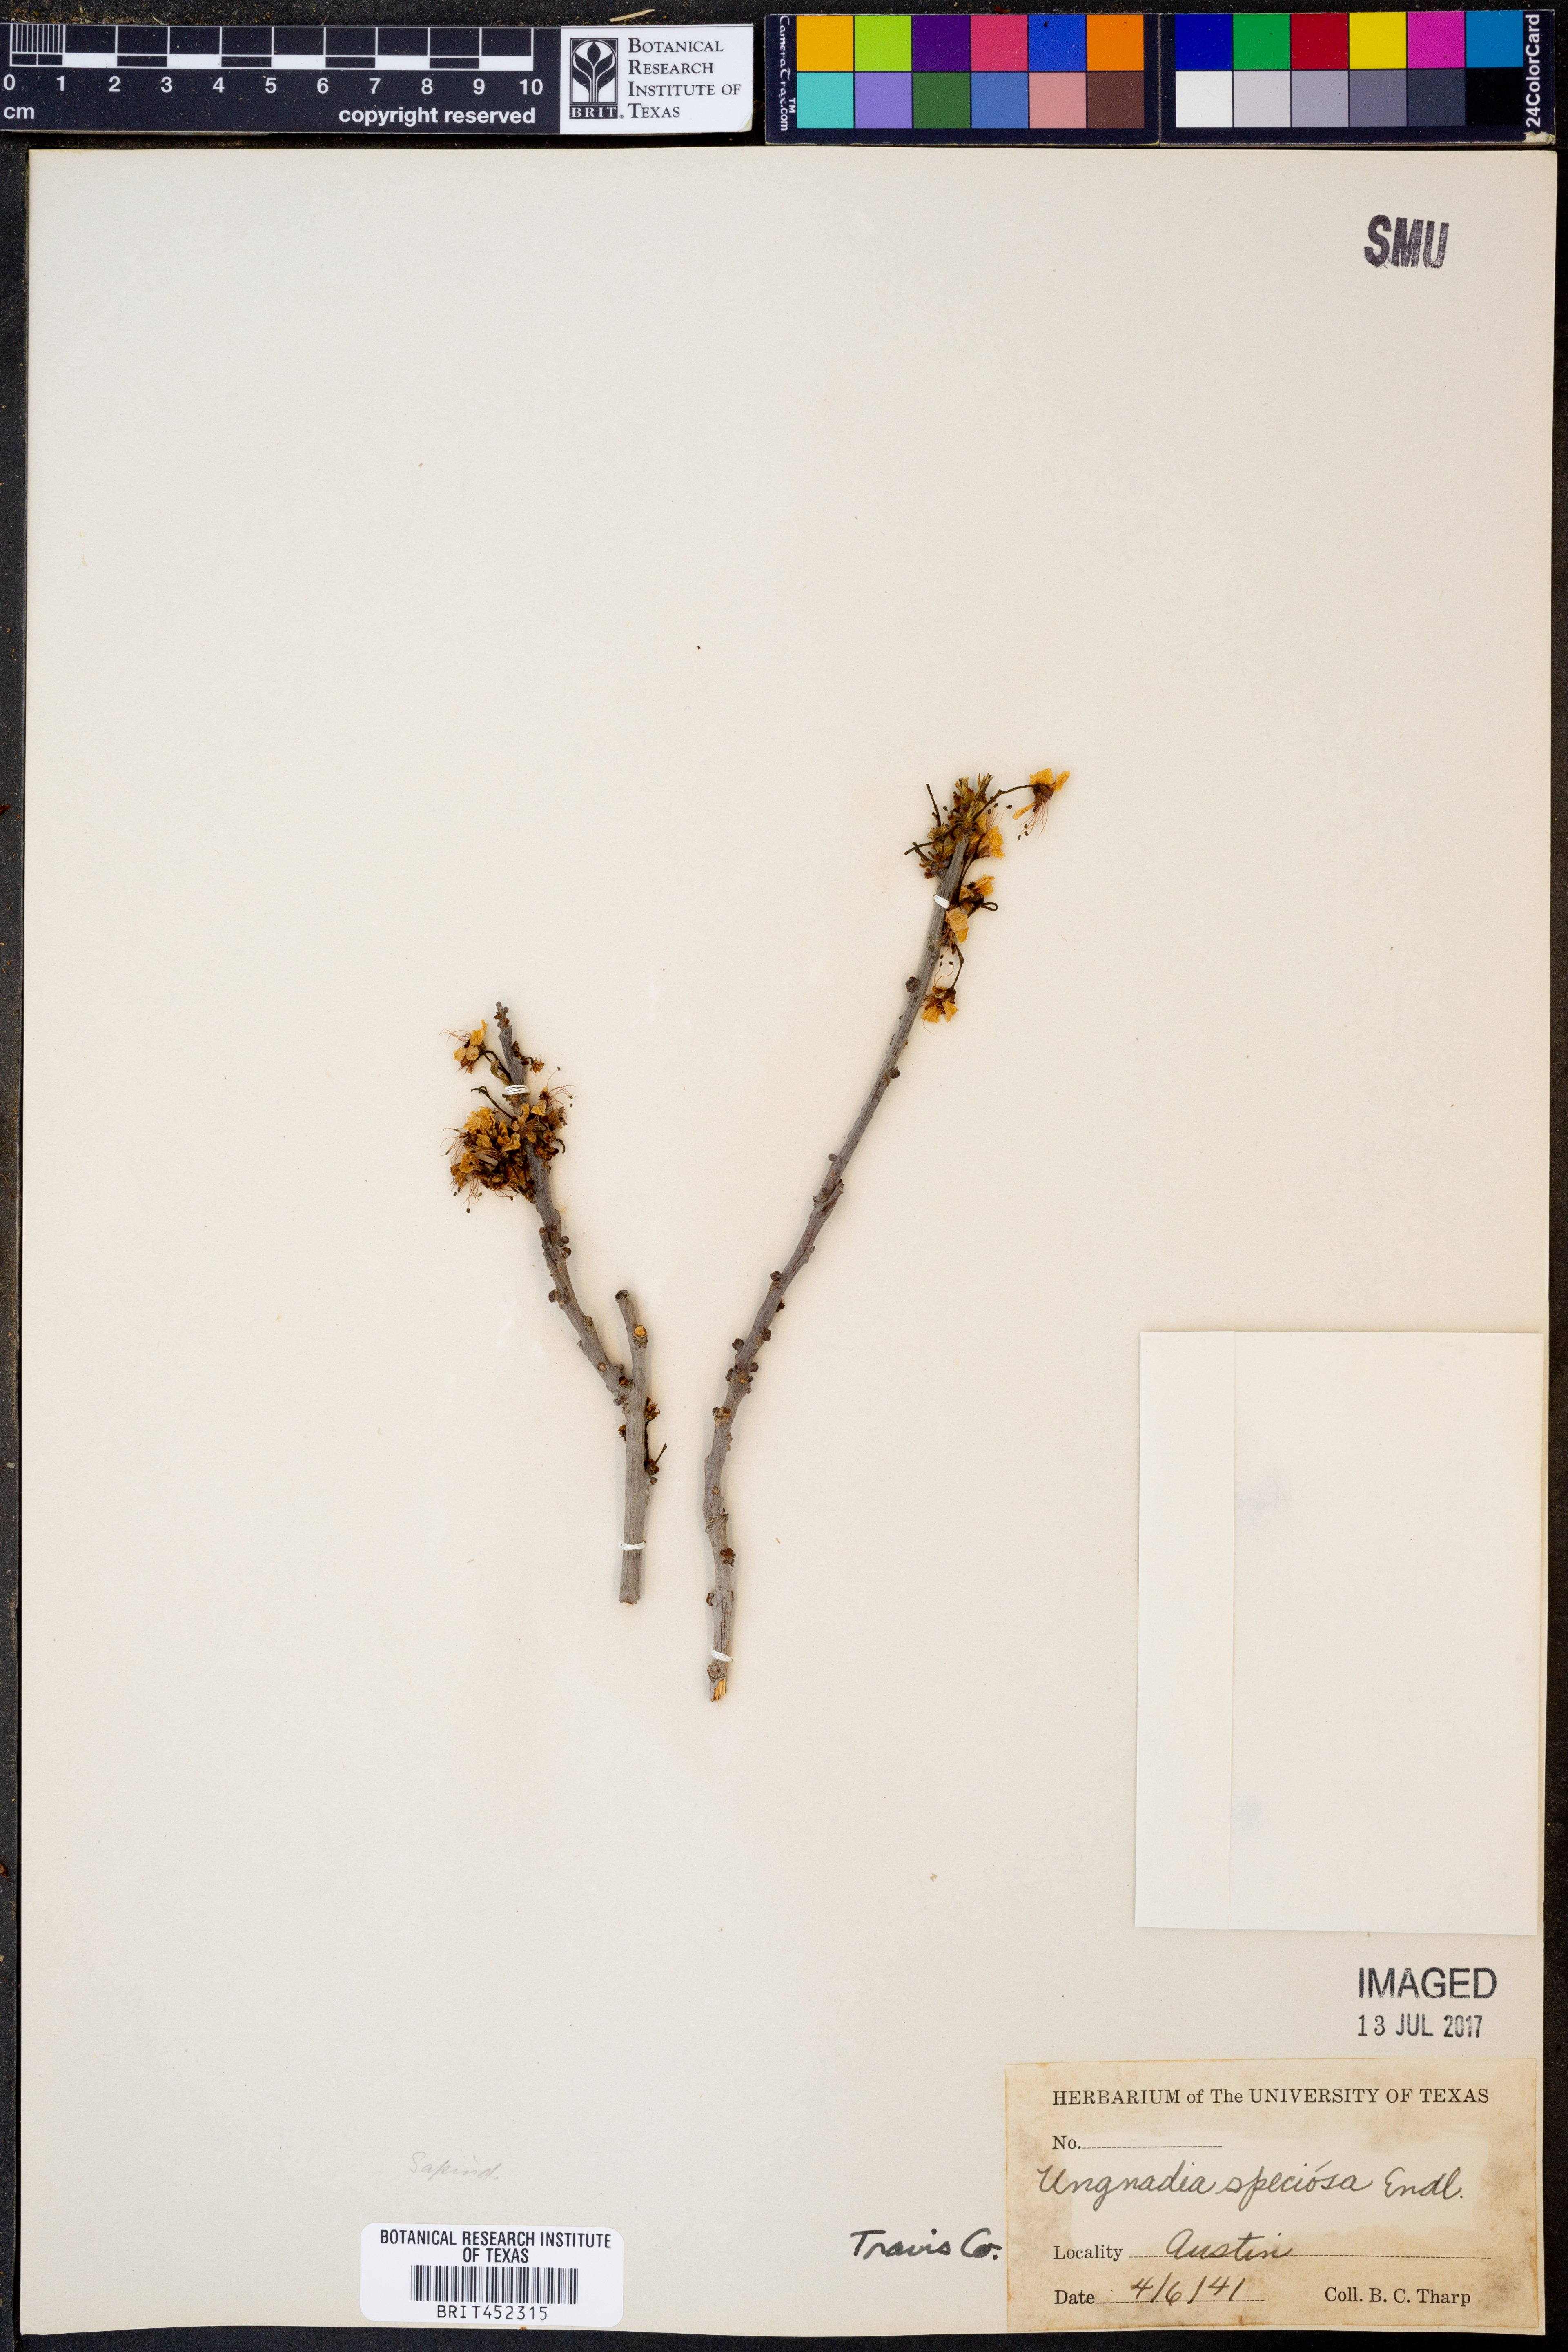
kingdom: Plantae
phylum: Tracheophyta
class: Magnoliopsida
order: Sapindales
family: Sapindaceae
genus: Ungnadia
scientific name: Ungnadia speciosa
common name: Texas-buckeye
